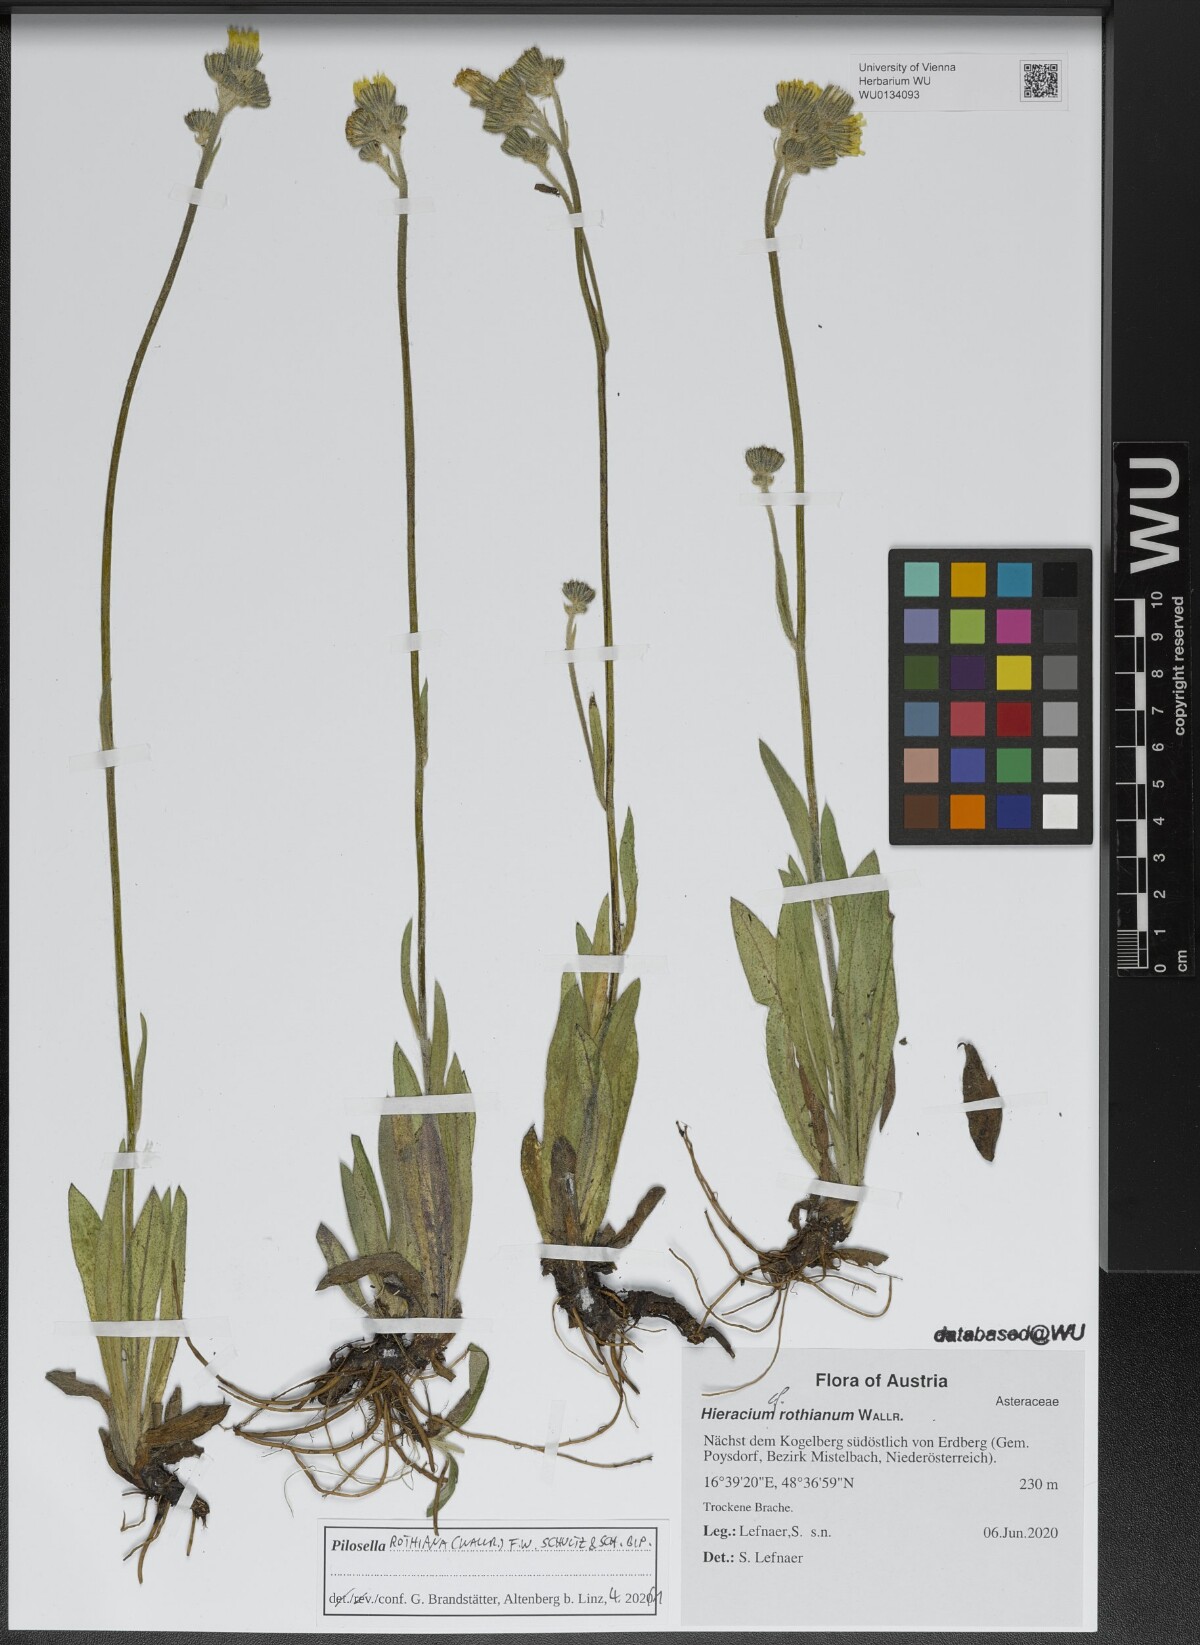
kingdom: Plantae
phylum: Tracheophyta
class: Magnoliopsida
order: Asterales
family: Asteraceae
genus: Pilosella
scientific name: Pilosella rothiana
